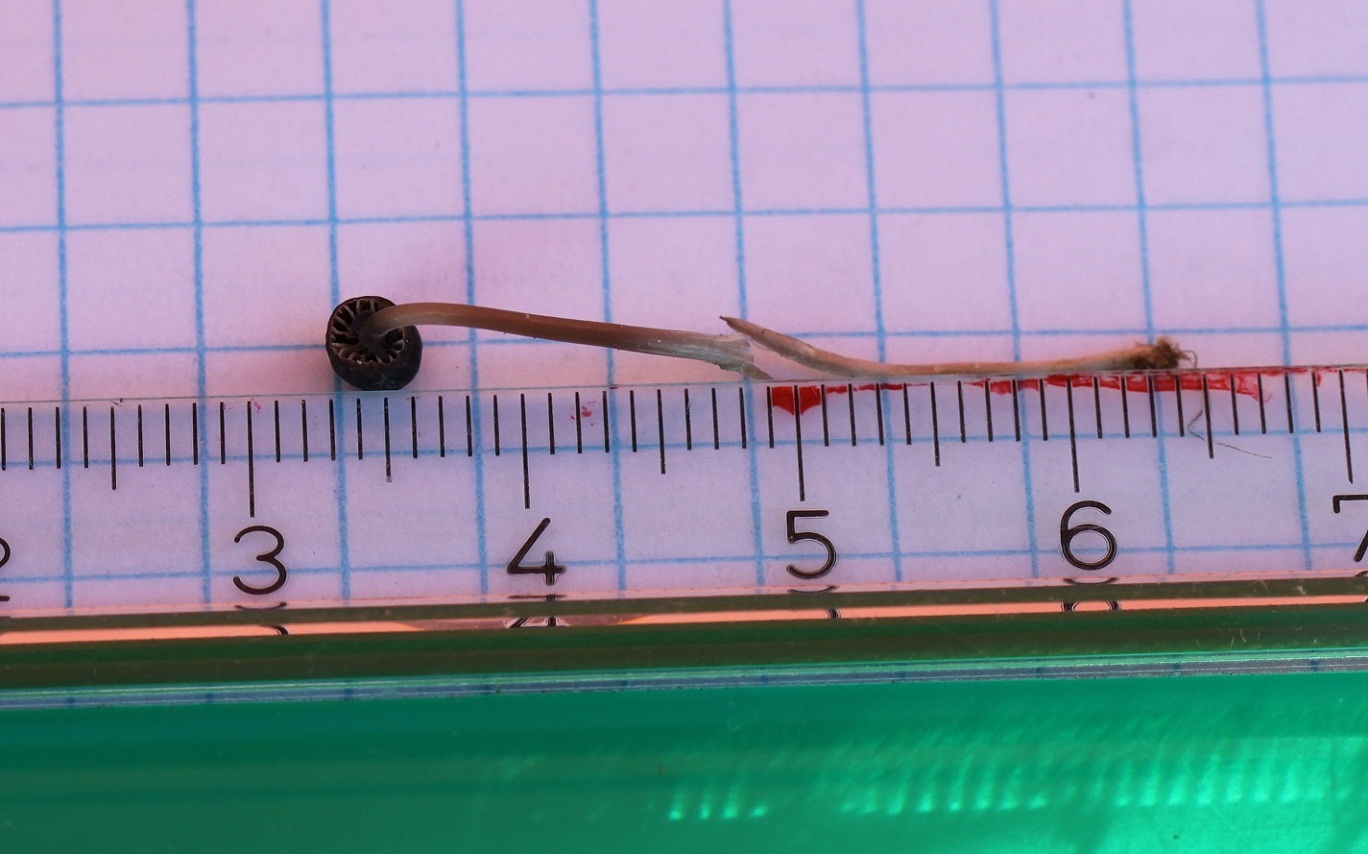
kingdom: Fungi
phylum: Basidiomycota
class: Agaricomycetes
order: Agaricales
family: Mycenaceae
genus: Mycena
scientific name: Mycena concolor
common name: tørvemos-huesvamp
